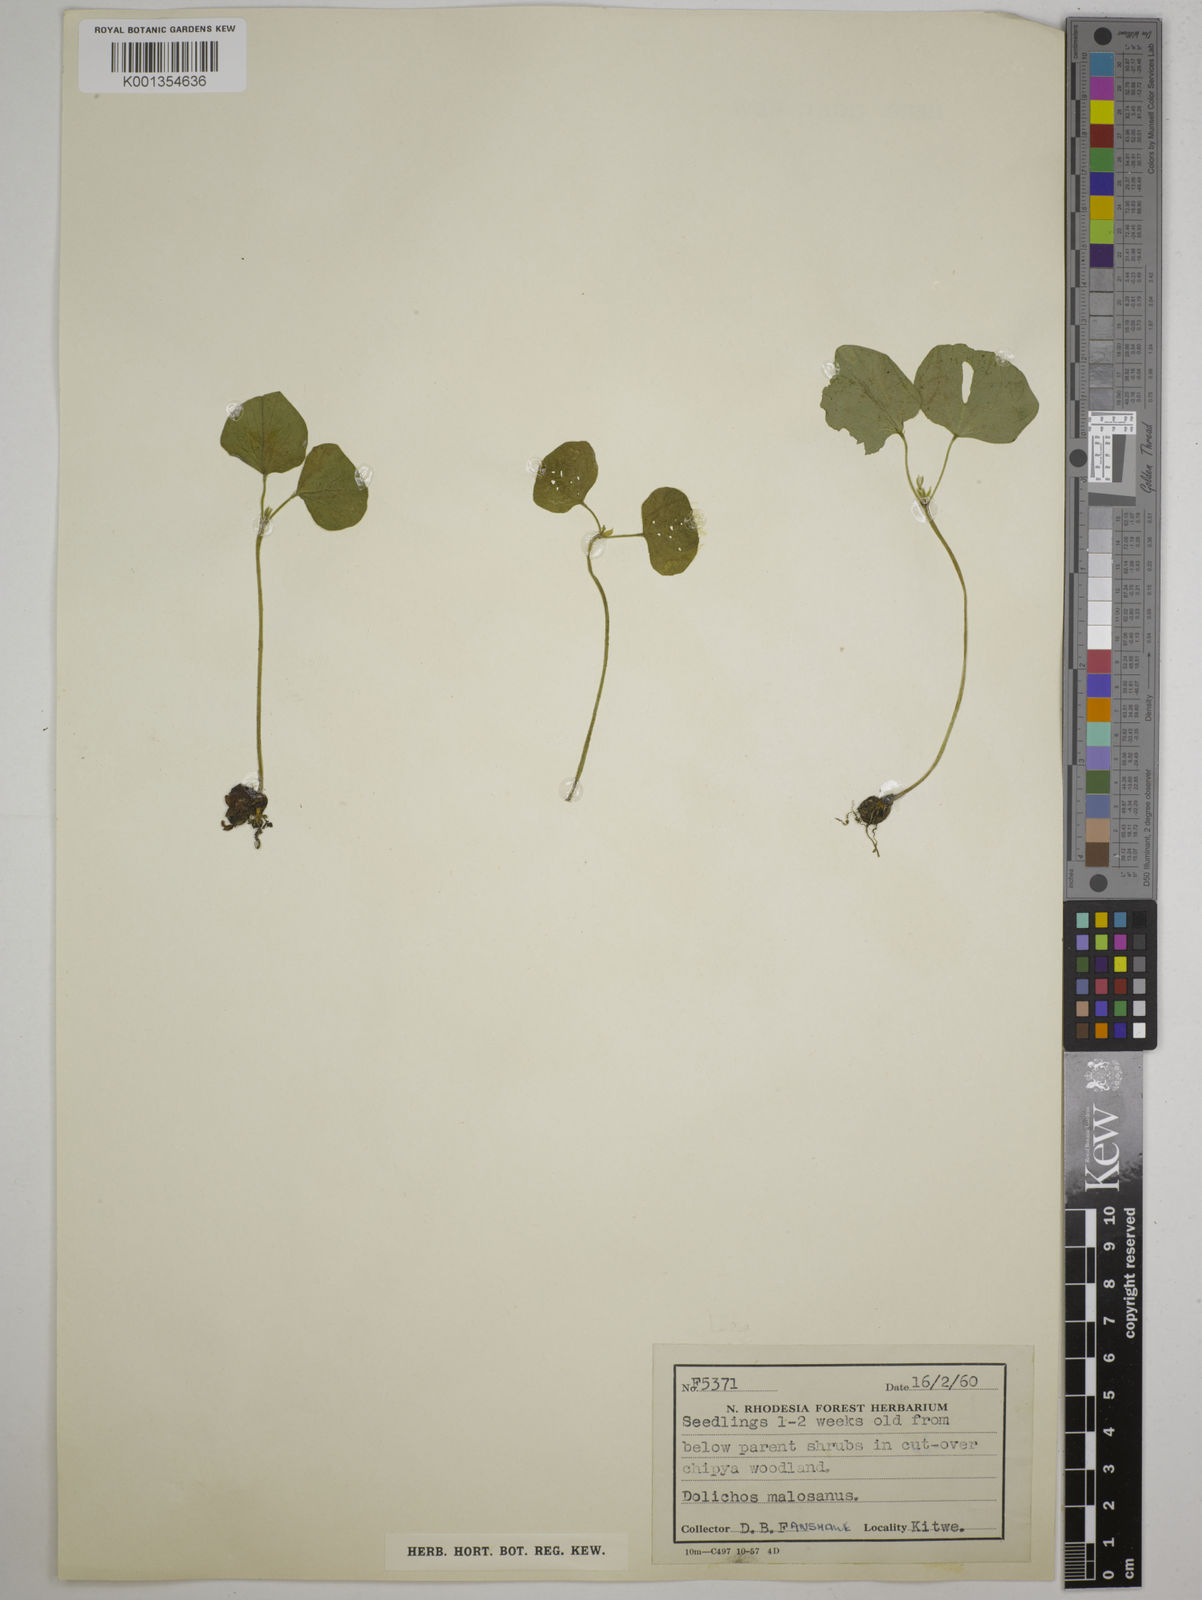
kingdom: Plantae
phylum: Tracheophyta
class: Magnoliopsida
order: Fabales
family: Fabaceae
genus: Dolichos
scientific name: Dolichos kilimandscharicus
